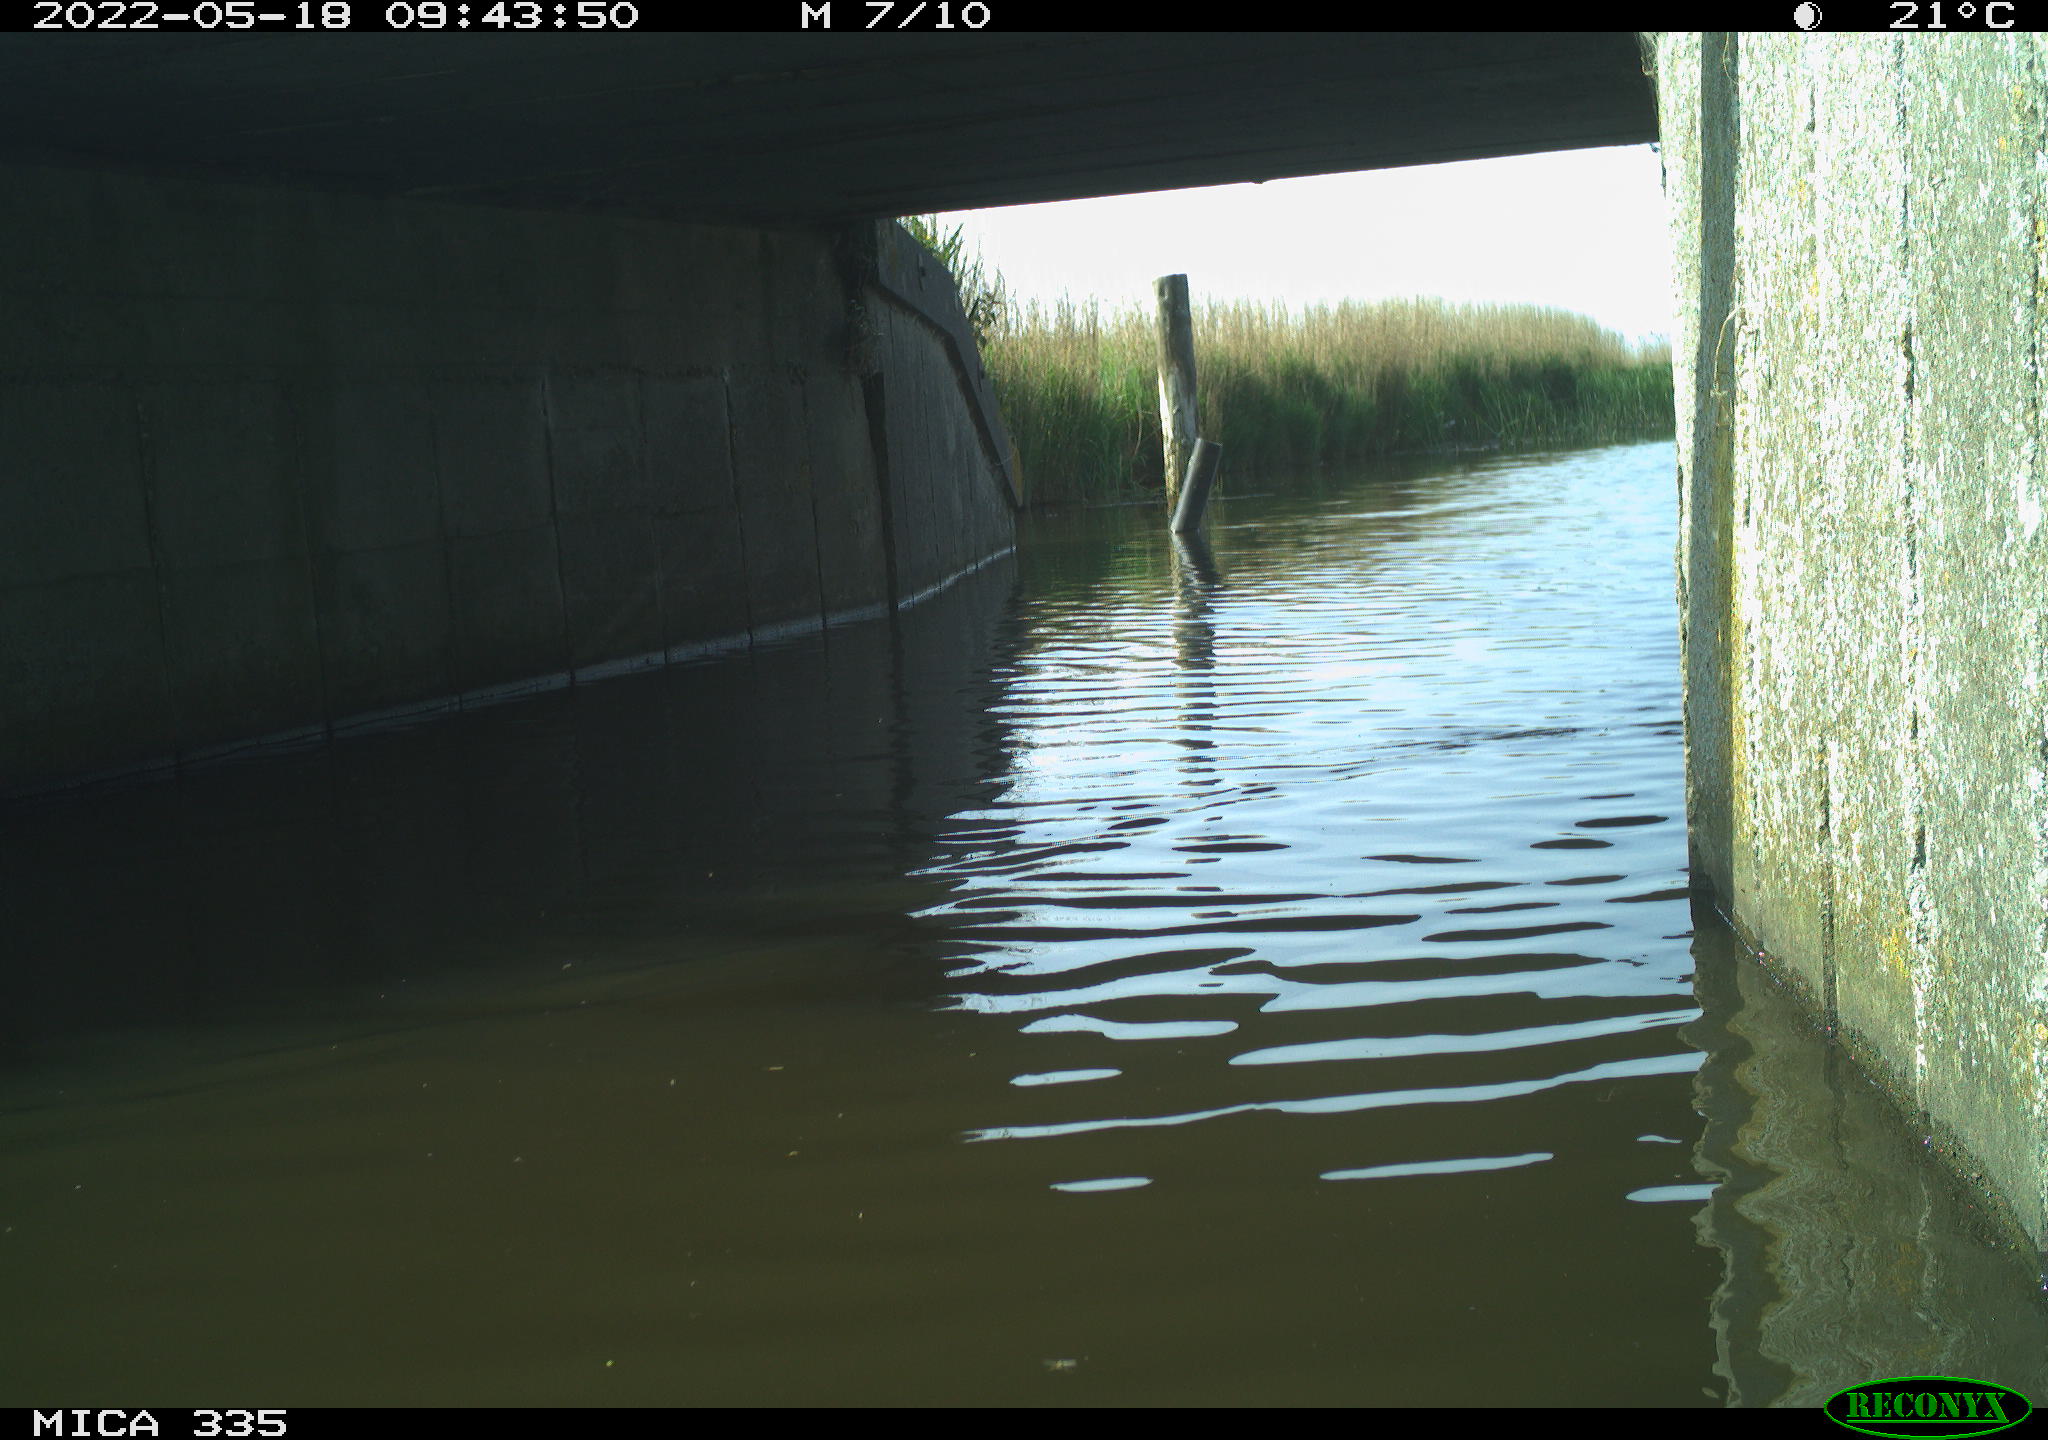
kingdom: Animalia
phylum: Chordata
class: Aves
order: Anseriformes
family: Anatidae
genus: Anas
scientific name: Anas platyrhynchos
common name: Mallard
